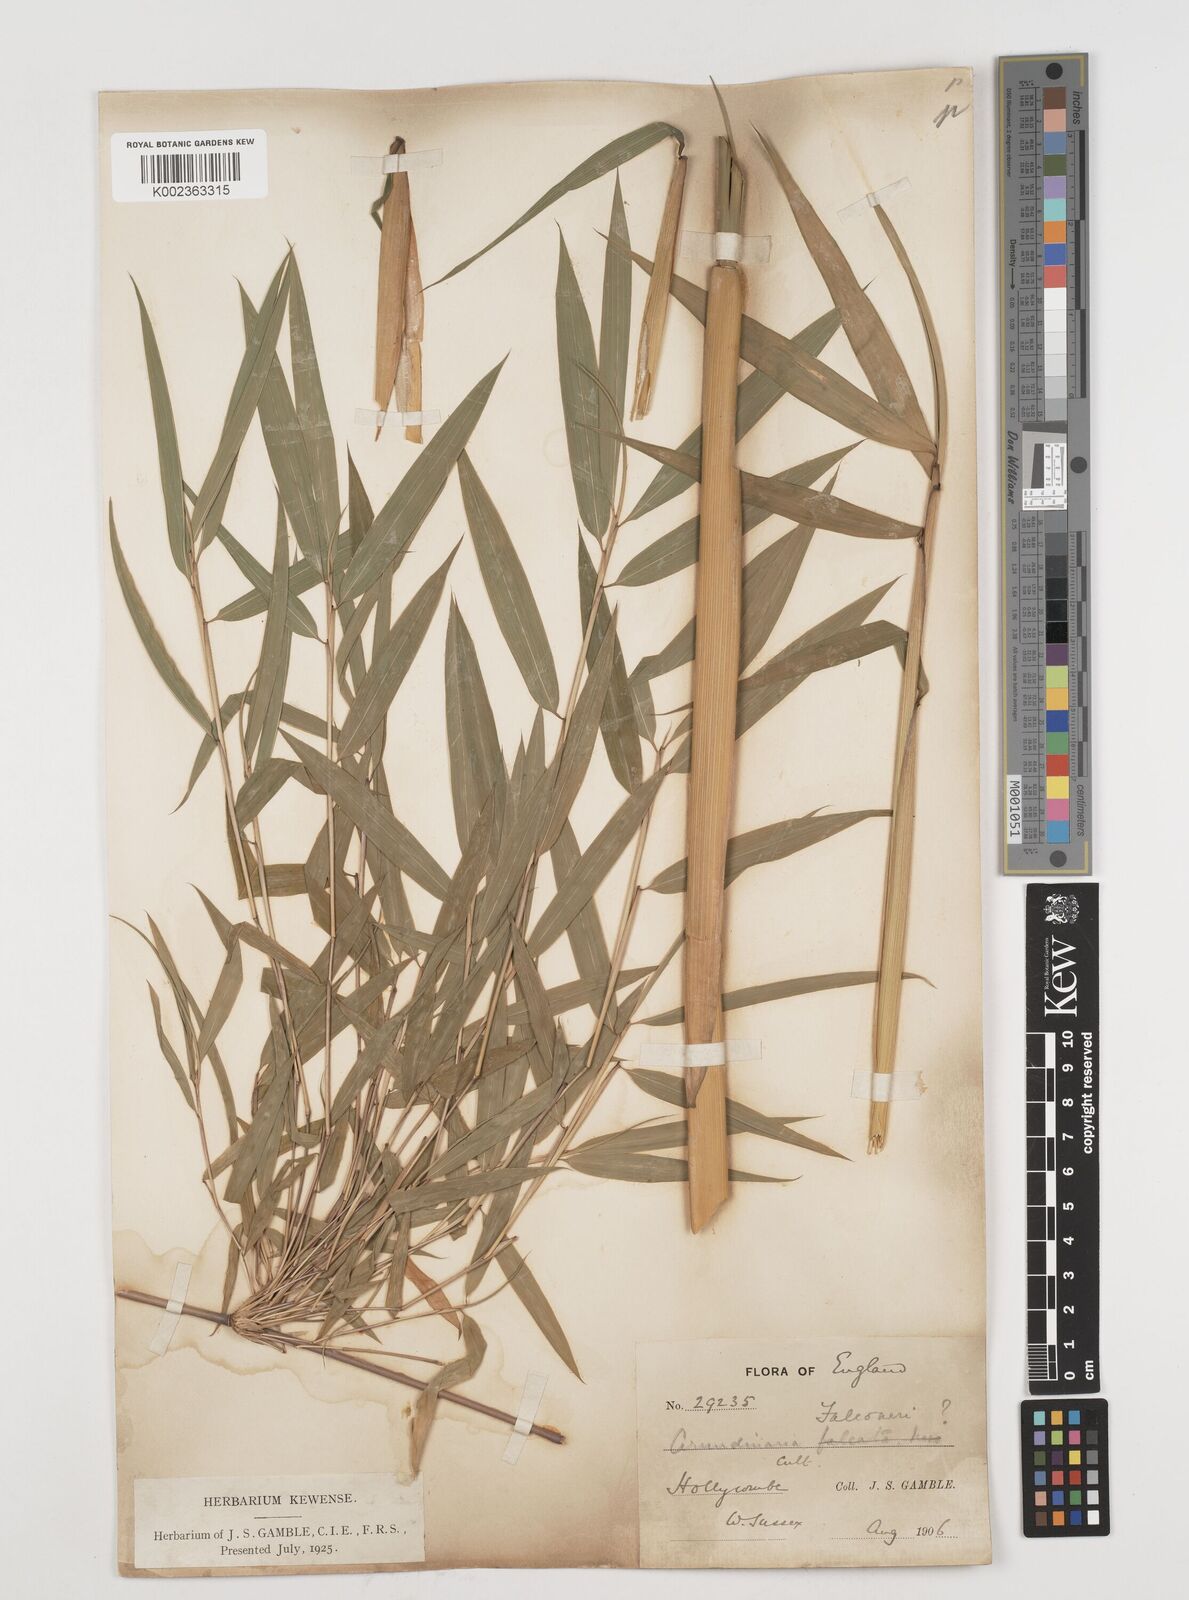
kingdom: Plantae
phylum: Tracheophyta
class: Liliopsida
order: Poales
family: Poaceae
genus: Himalayacalamus
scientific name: Himalayacalamus falconeri
